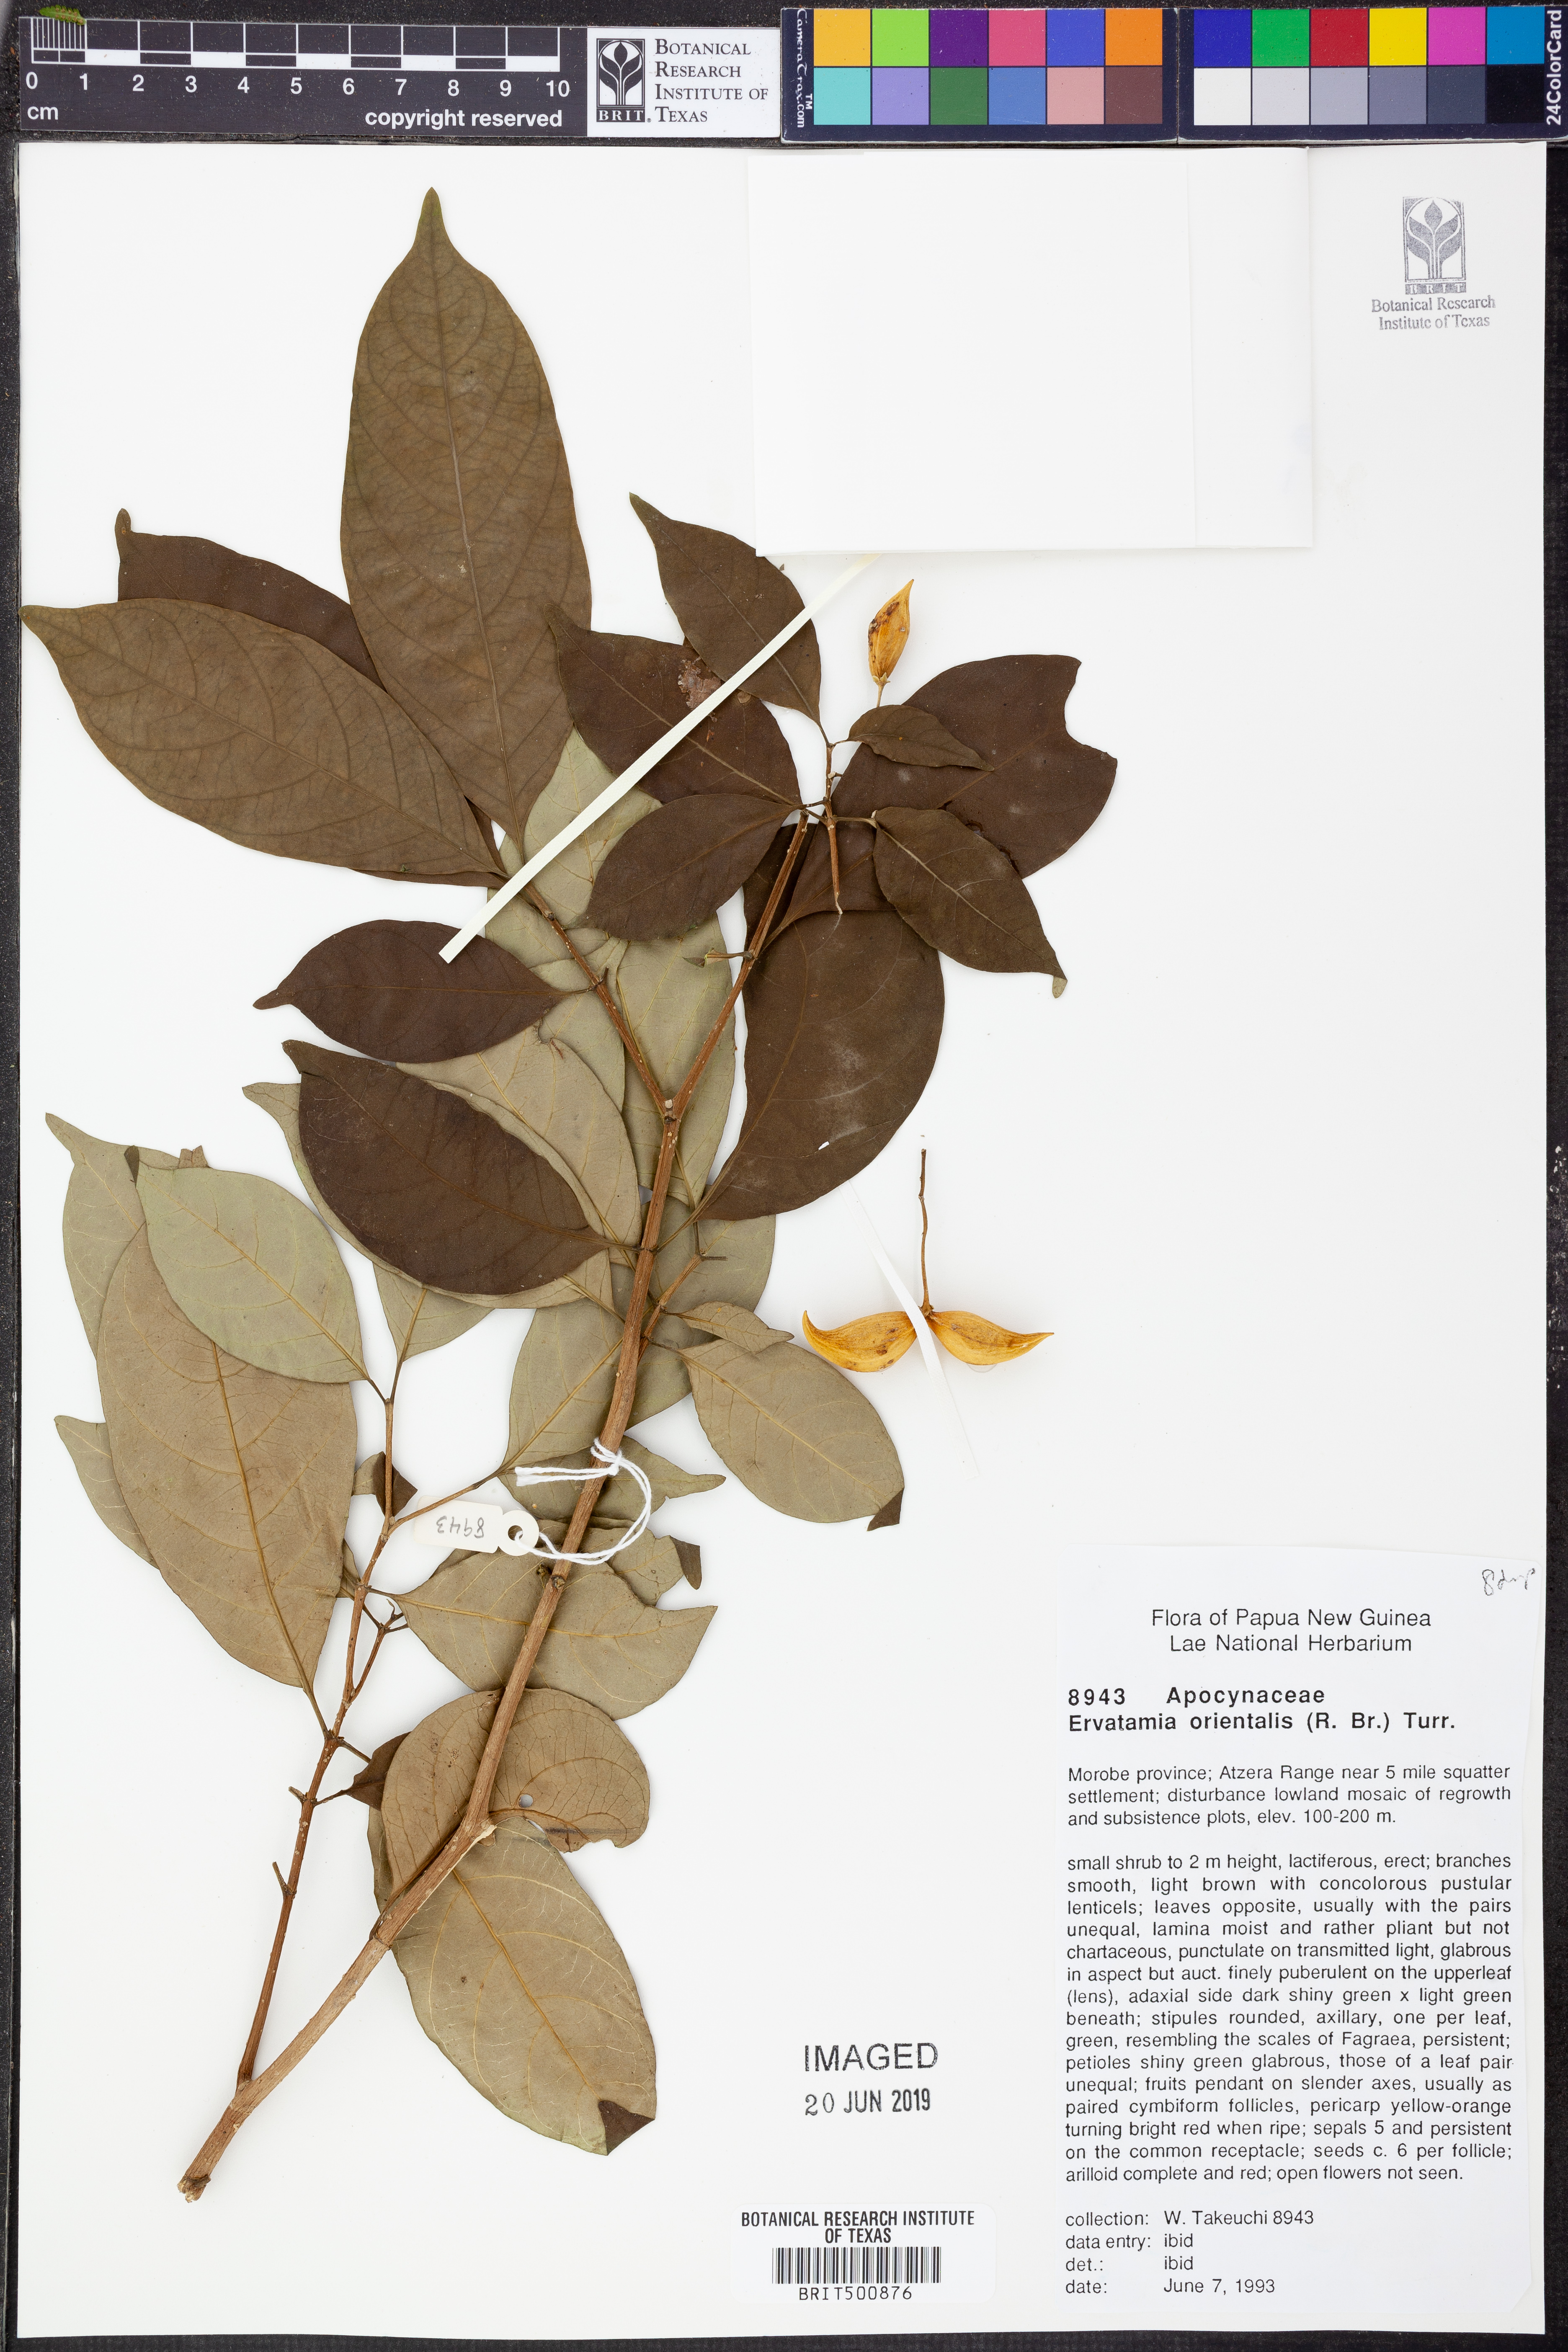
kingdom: Plantae
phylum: Tracheophyta
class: Magnoliopsida
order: Gentianales
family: Apocynaceae
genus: Tabernaemontana
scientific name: Tabernaemontana Ervatamia orientalis
